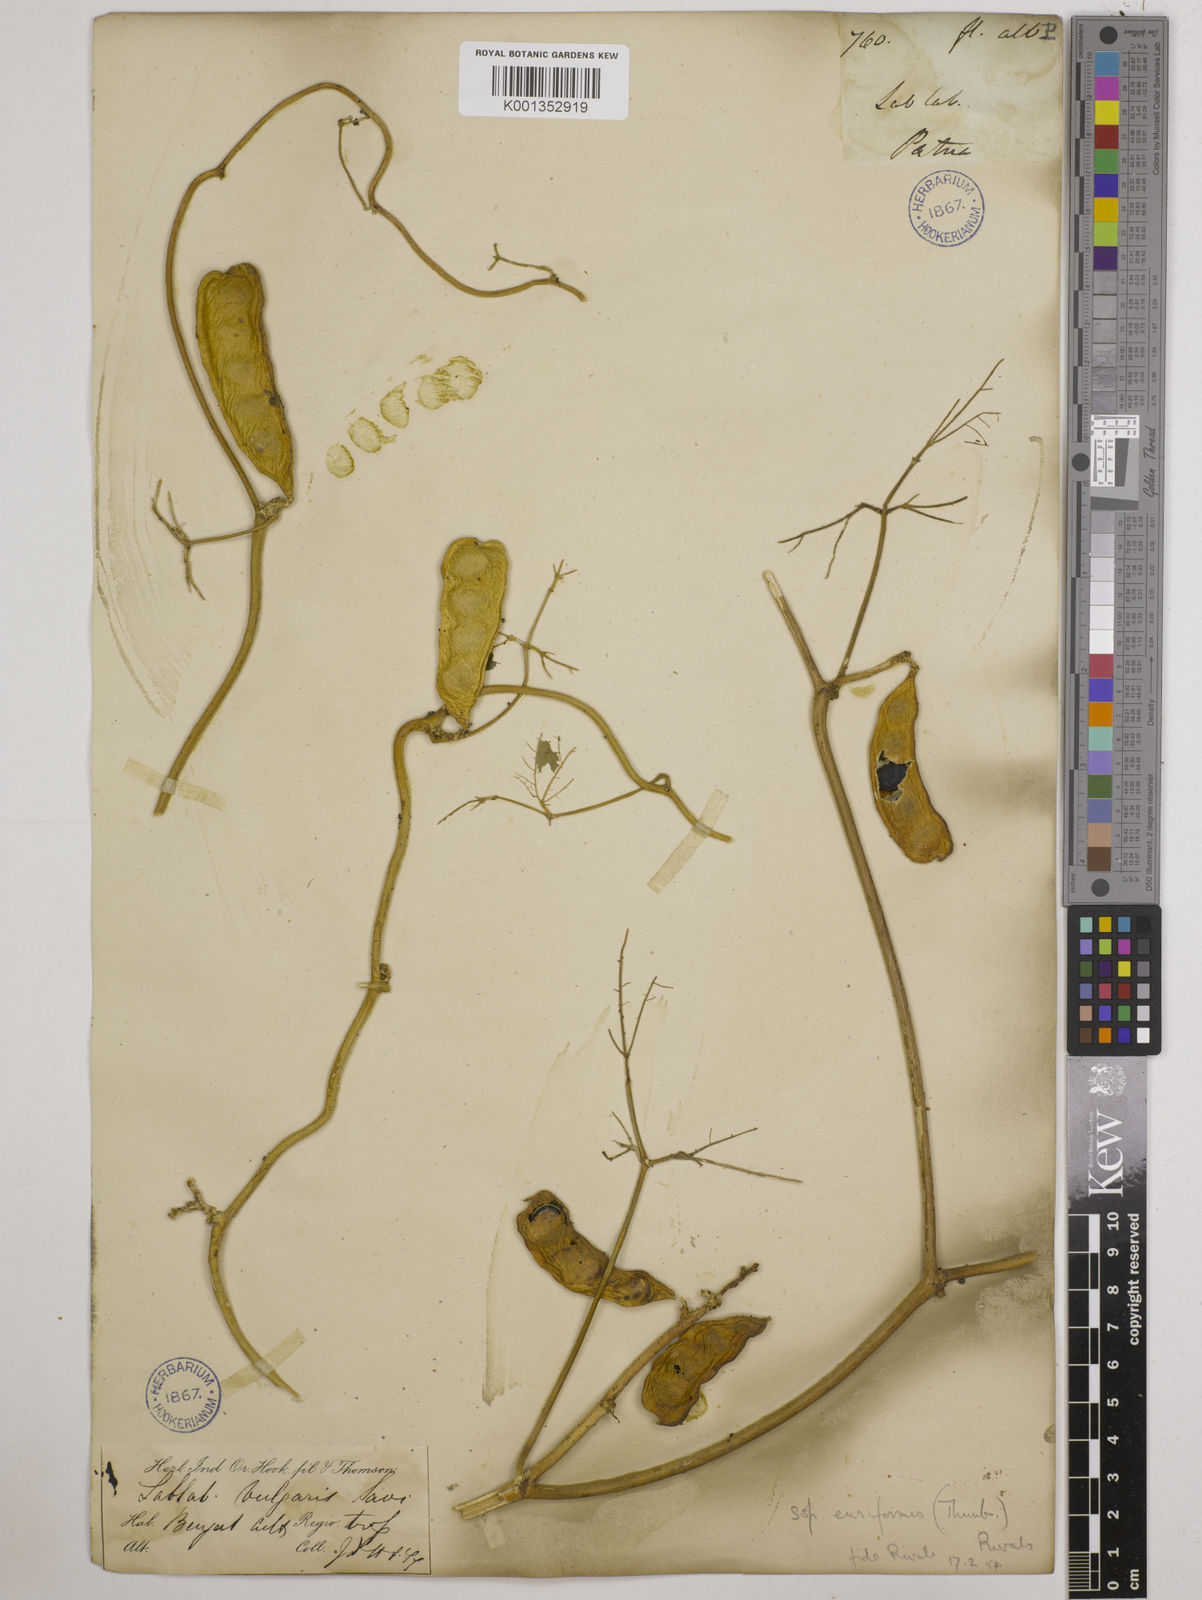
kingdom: Plantae
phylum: Tracheophyta
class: Magnoliopsida
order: Fabales
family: Fabaceae
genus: Lablab
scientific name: Lablab purpureus
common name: Lablab-bean
